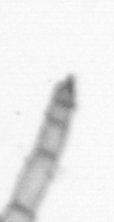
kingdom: Chromista
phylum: Ochrophyta
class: Bacillariophyceae
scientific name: Bacillariophyceae
